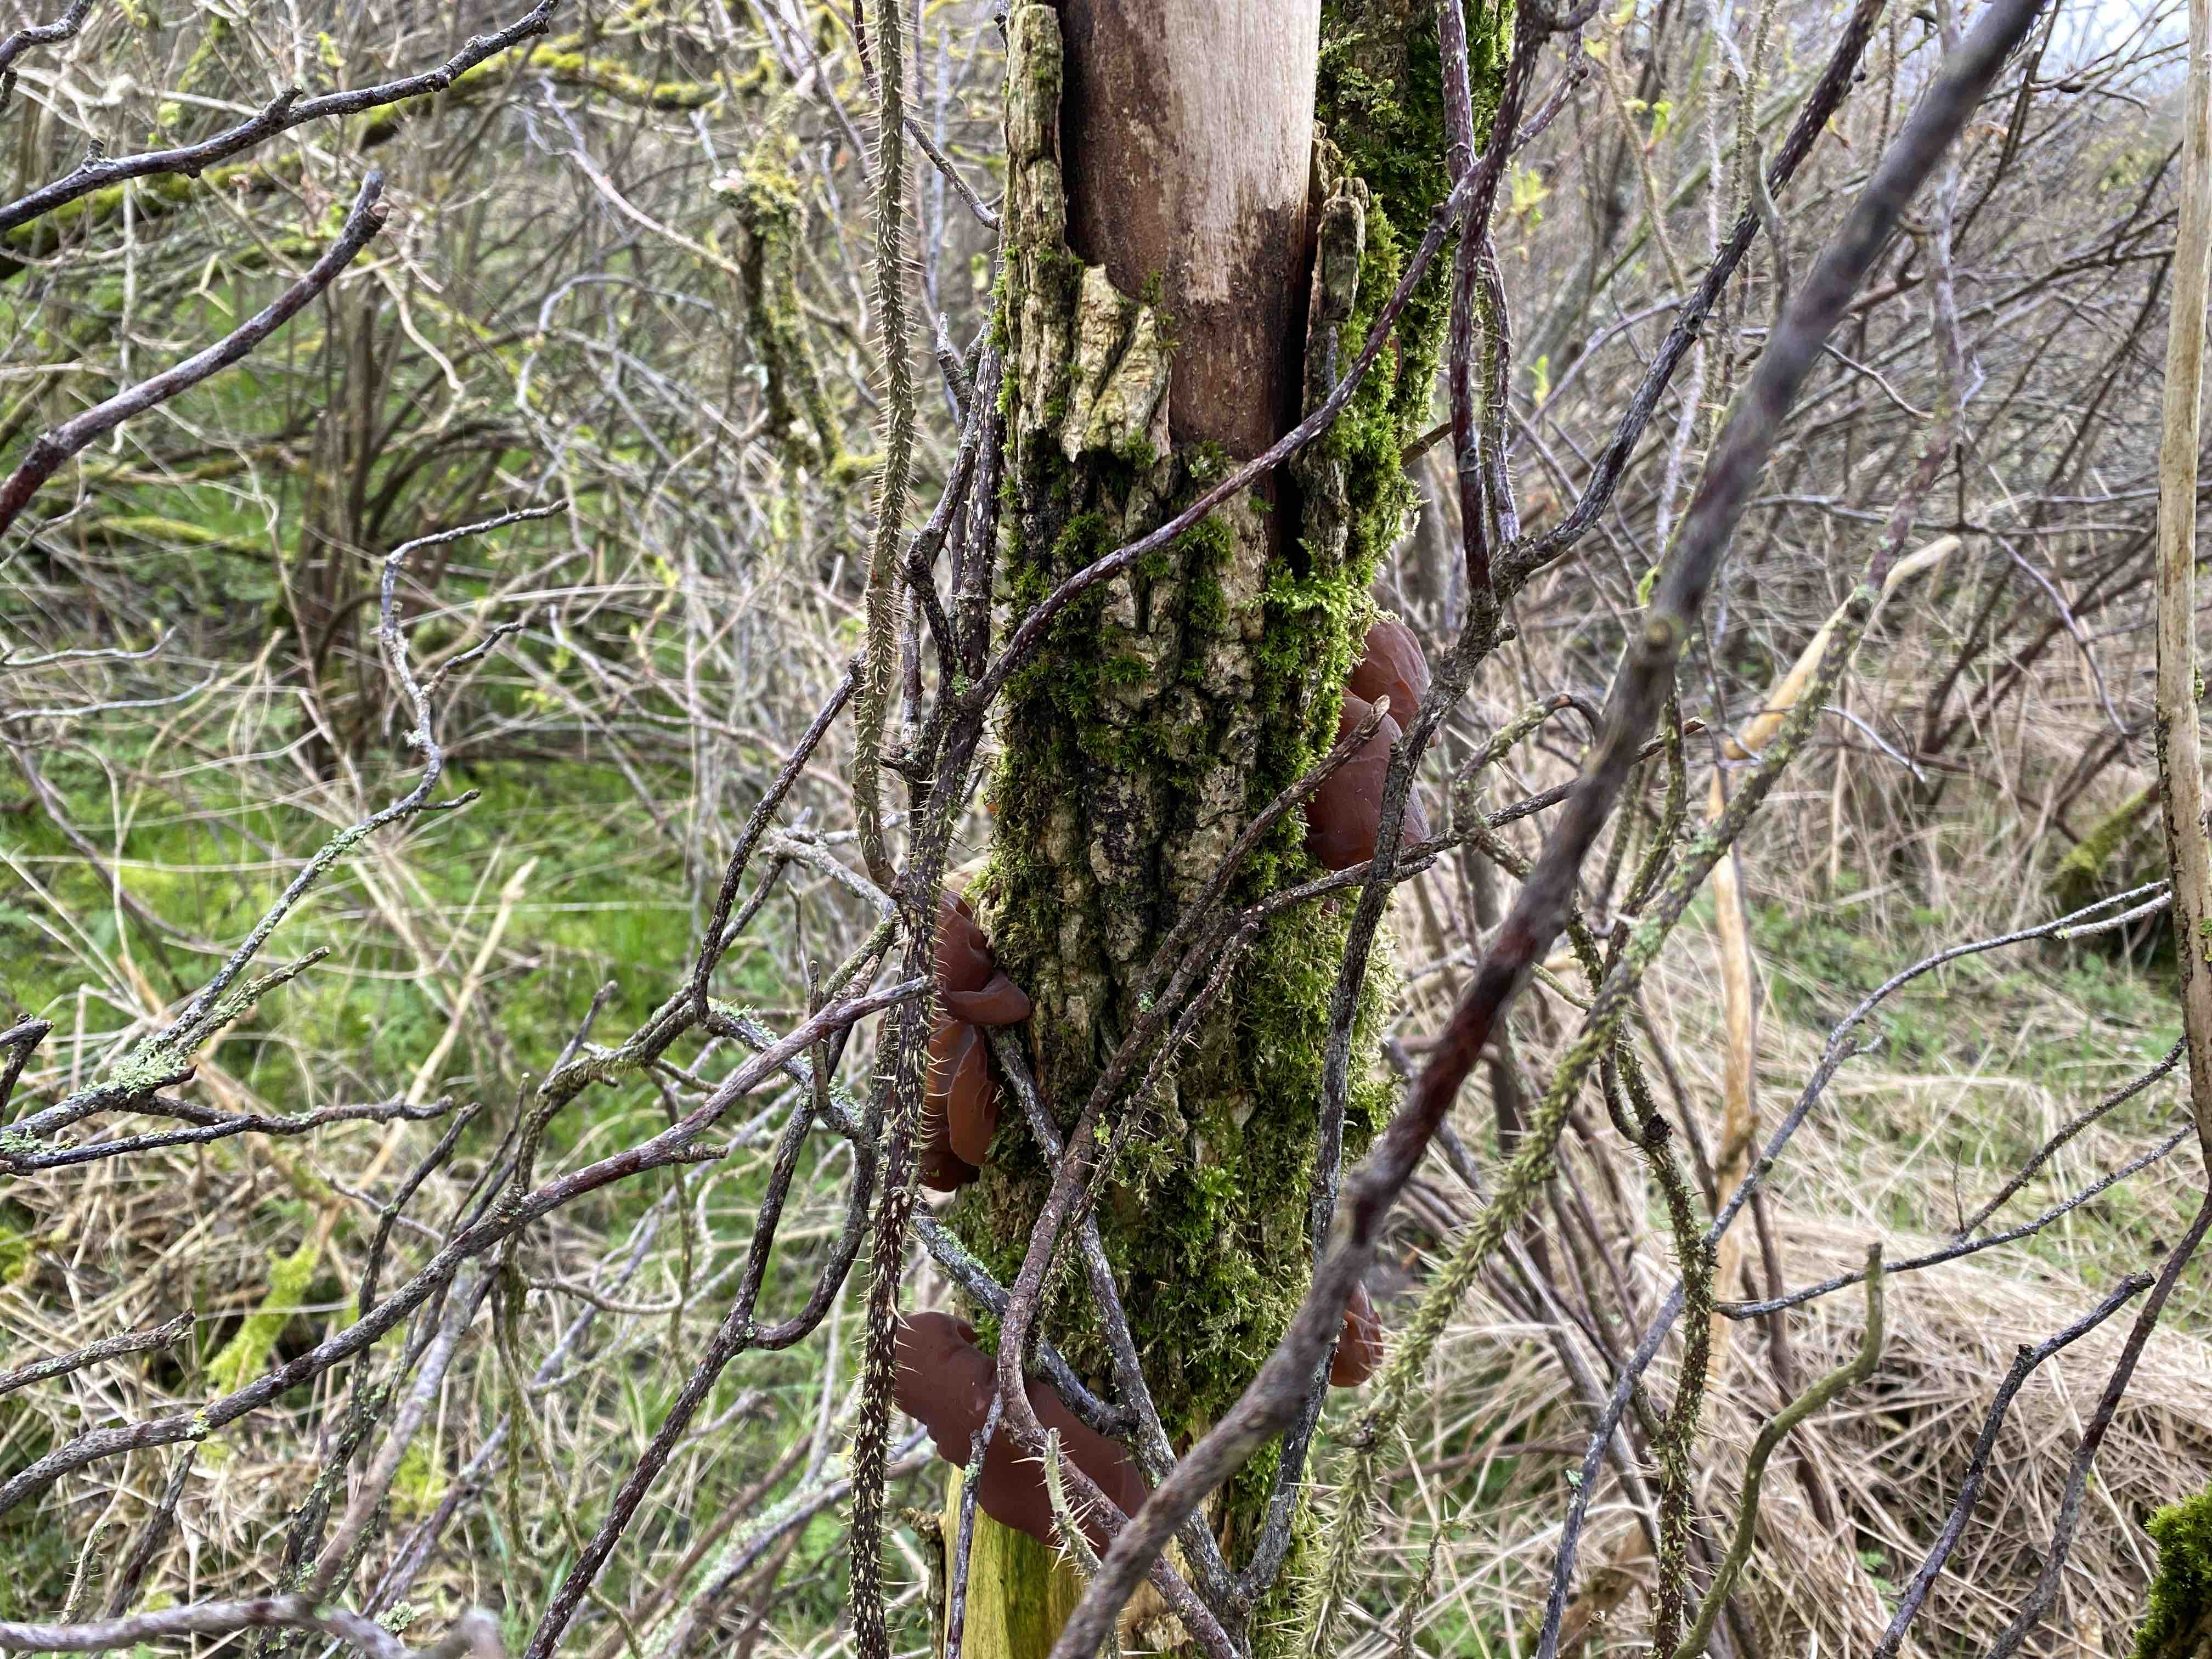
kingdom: Fungi
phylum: Basidiomycota
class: Agaricomycetes
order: Auriculariales
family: Auriculariaceae
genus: Auricularia
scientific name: Auricularia auricula-judae
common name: almindelig judasøre
